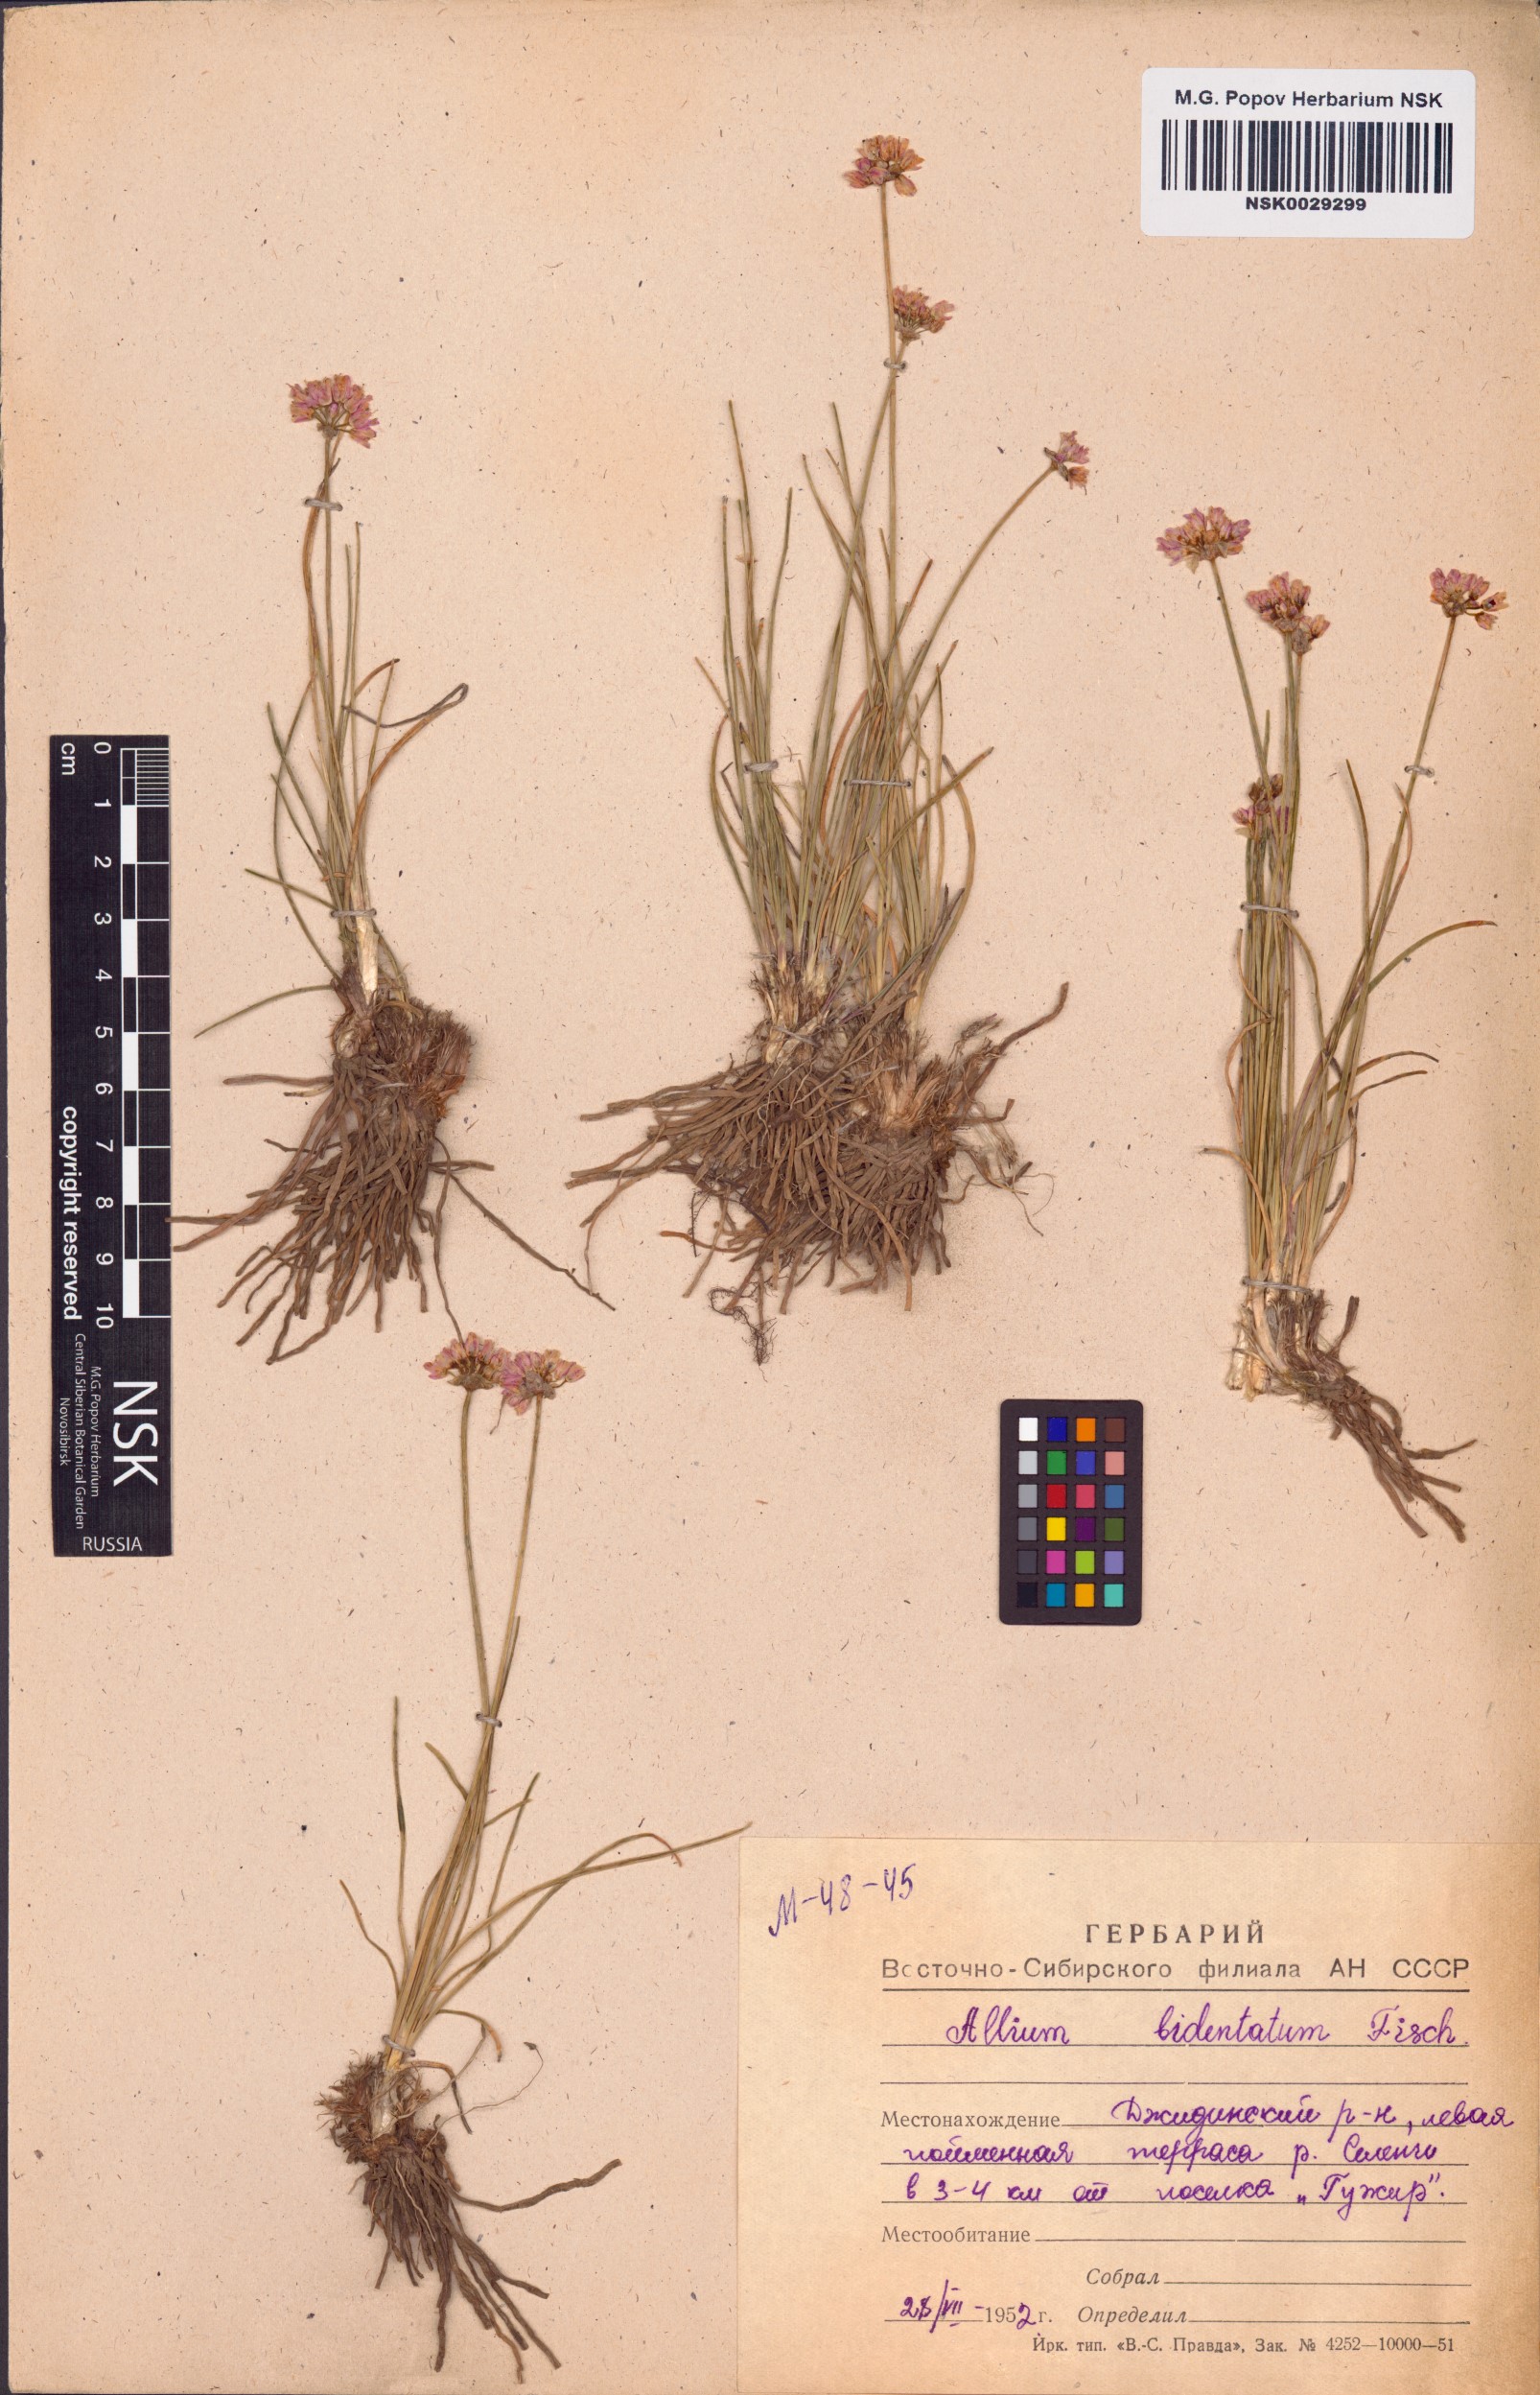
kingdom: Plantae
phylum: Tracheophyta
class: Liliopsida
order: Asparagales
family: Amaryllidaceae
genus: Allium
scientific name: Allium bidentatum
